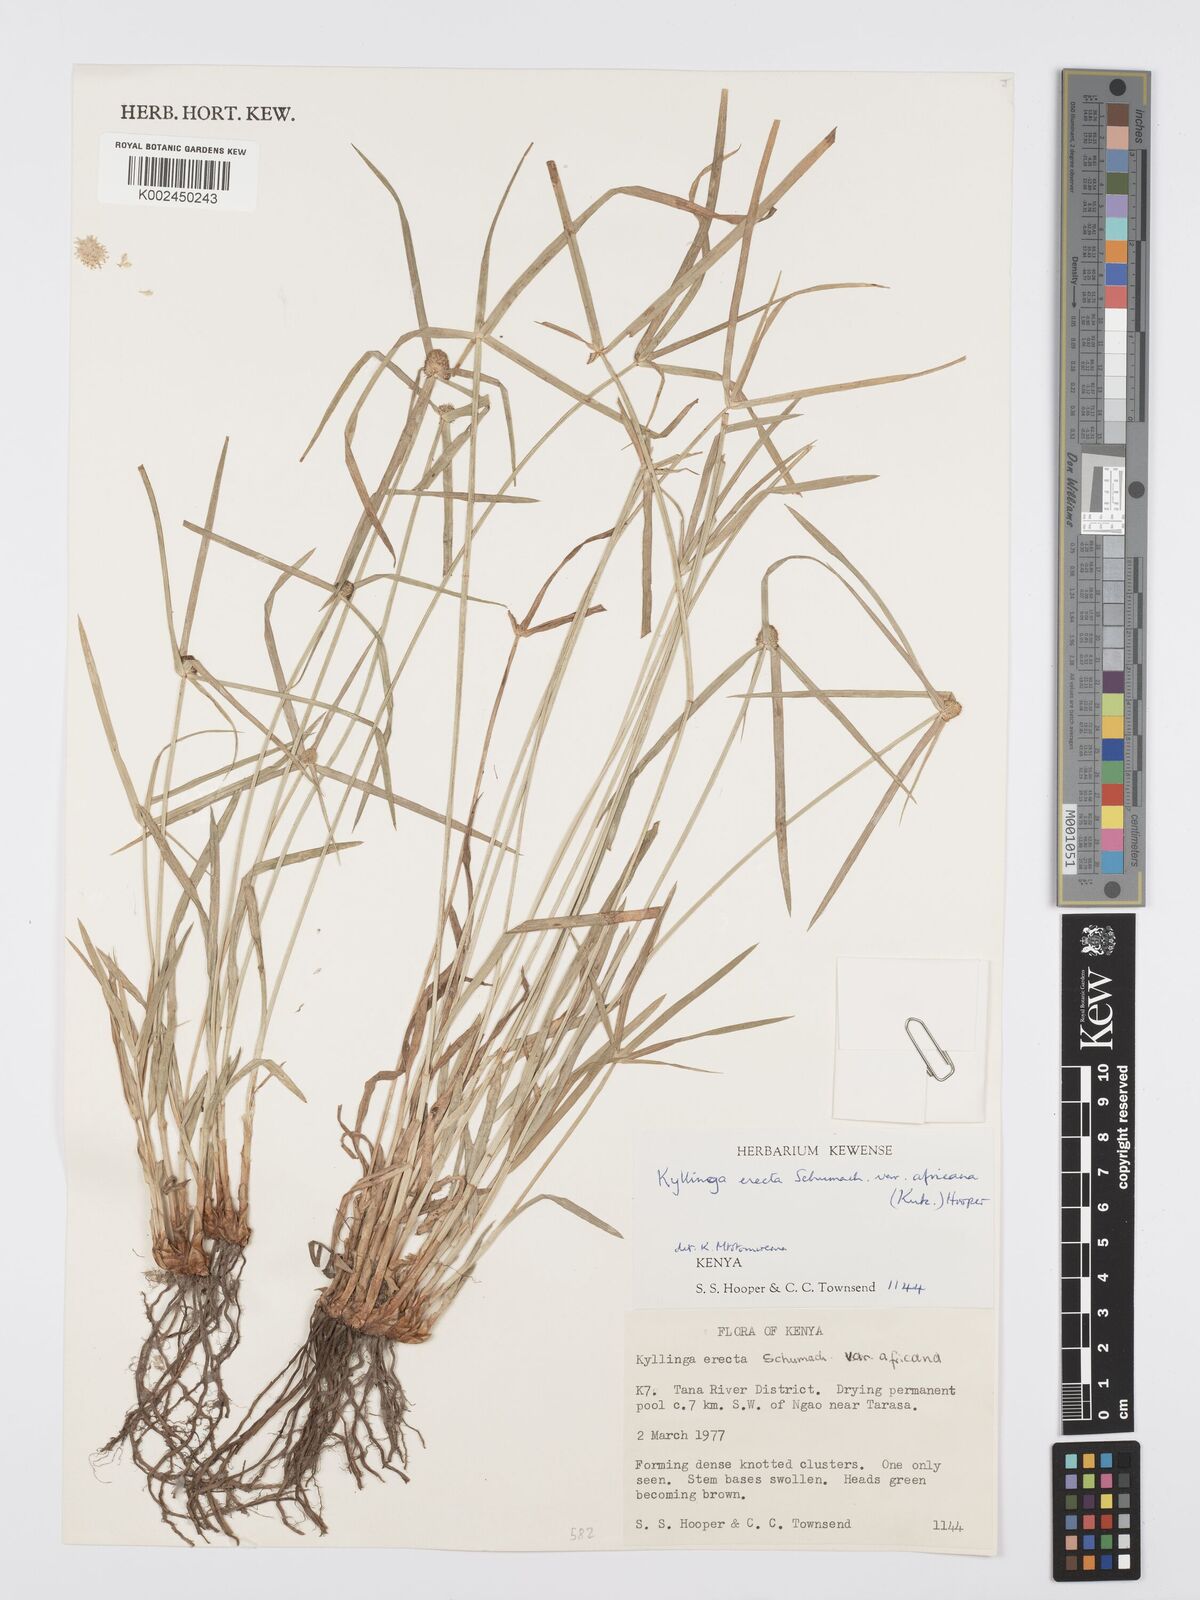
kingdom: Plantae
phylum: Tracheophyta
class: Liliopsida
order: Poales
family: Cyperaceae
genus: Cyperus
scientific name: Cyperus
